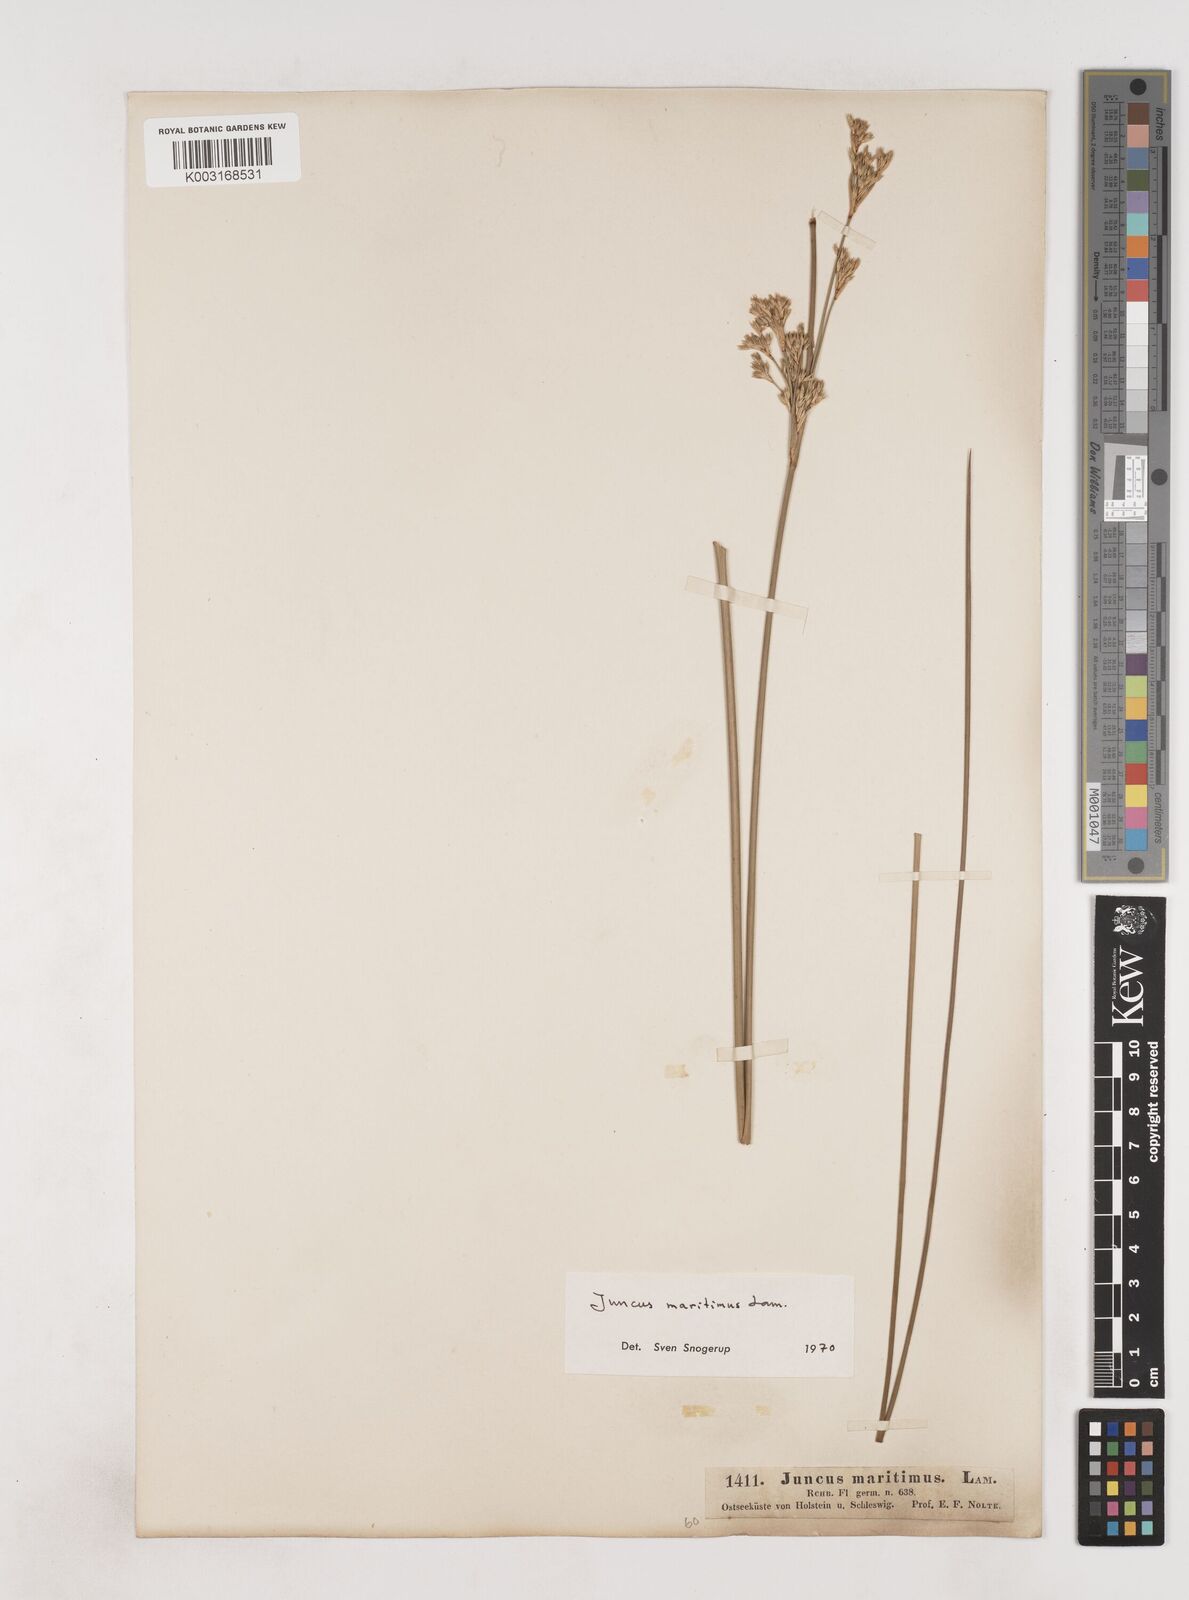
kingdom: Plantae
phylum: Tracheophyta
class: Liliopsida
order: Poales
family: Juncaceae
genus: Juncus
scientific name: Juncus maritimus
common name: Sea rush
